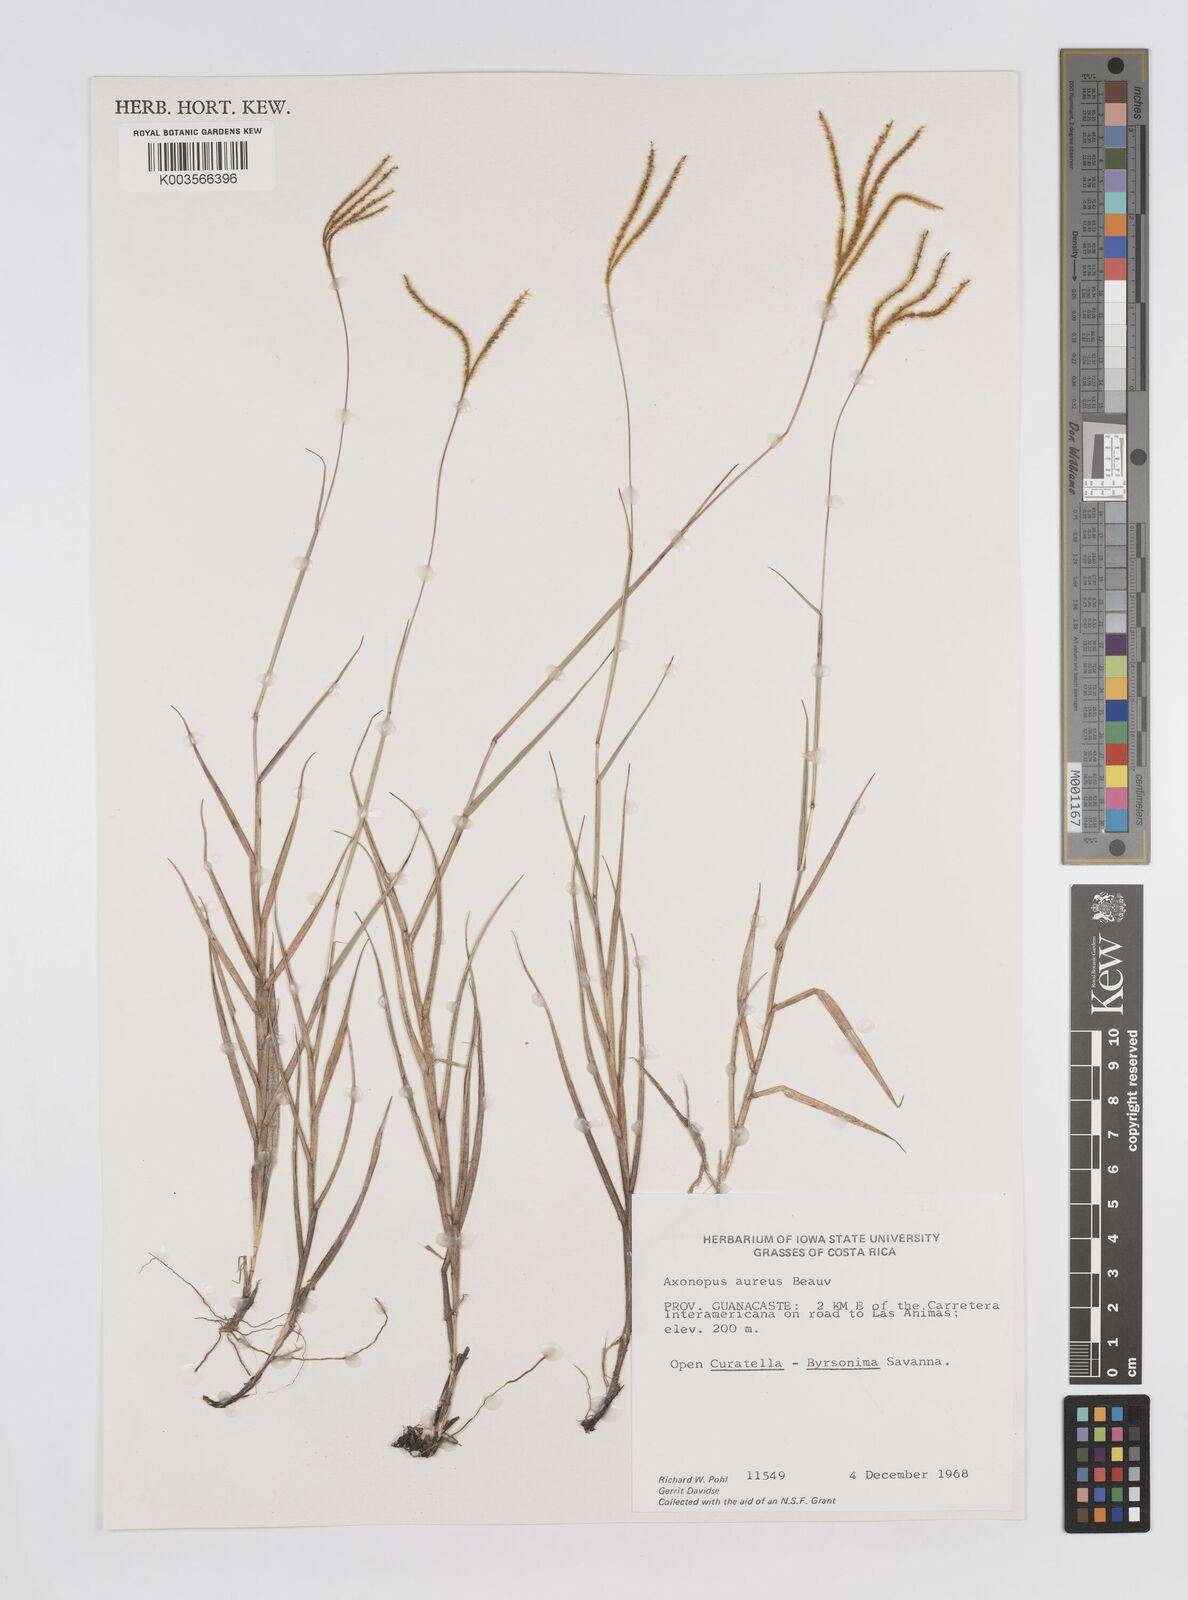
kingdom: Plantae
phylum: Tracheophyta
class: Liliopsida
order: Poales
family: Poaceae
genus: Axonopus
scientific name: Axonopus aureus
